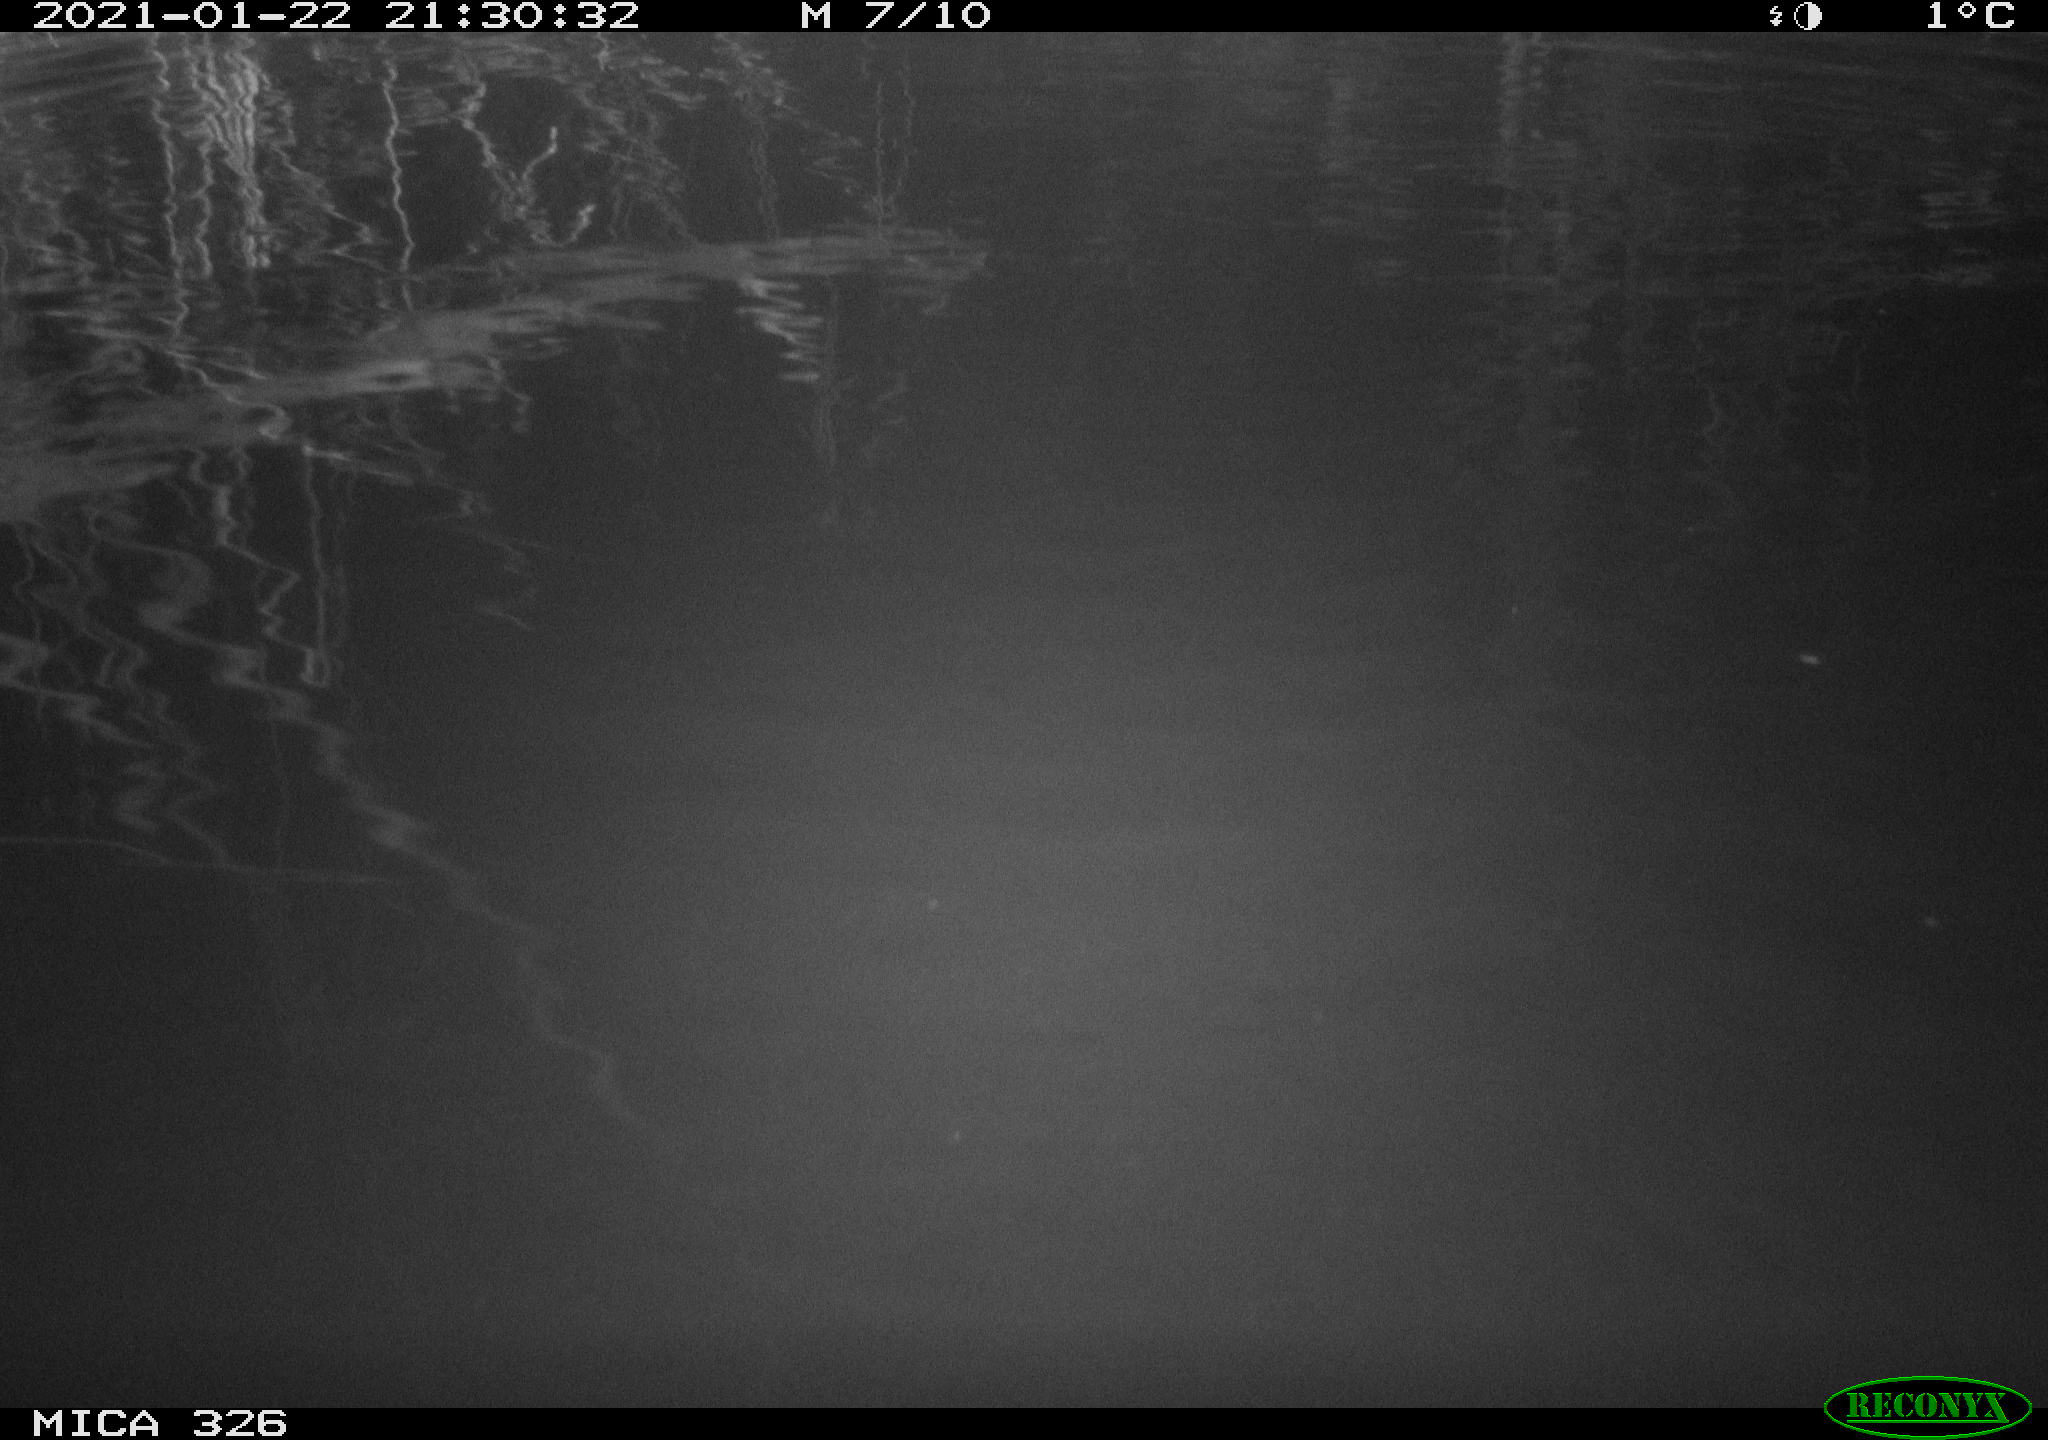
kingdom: Animalia
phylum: Chordata
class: Mammalia
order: Rodentia
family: Cricetidae
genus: Ondatra
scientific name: Ondatra zibethicus
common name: Muskrat
